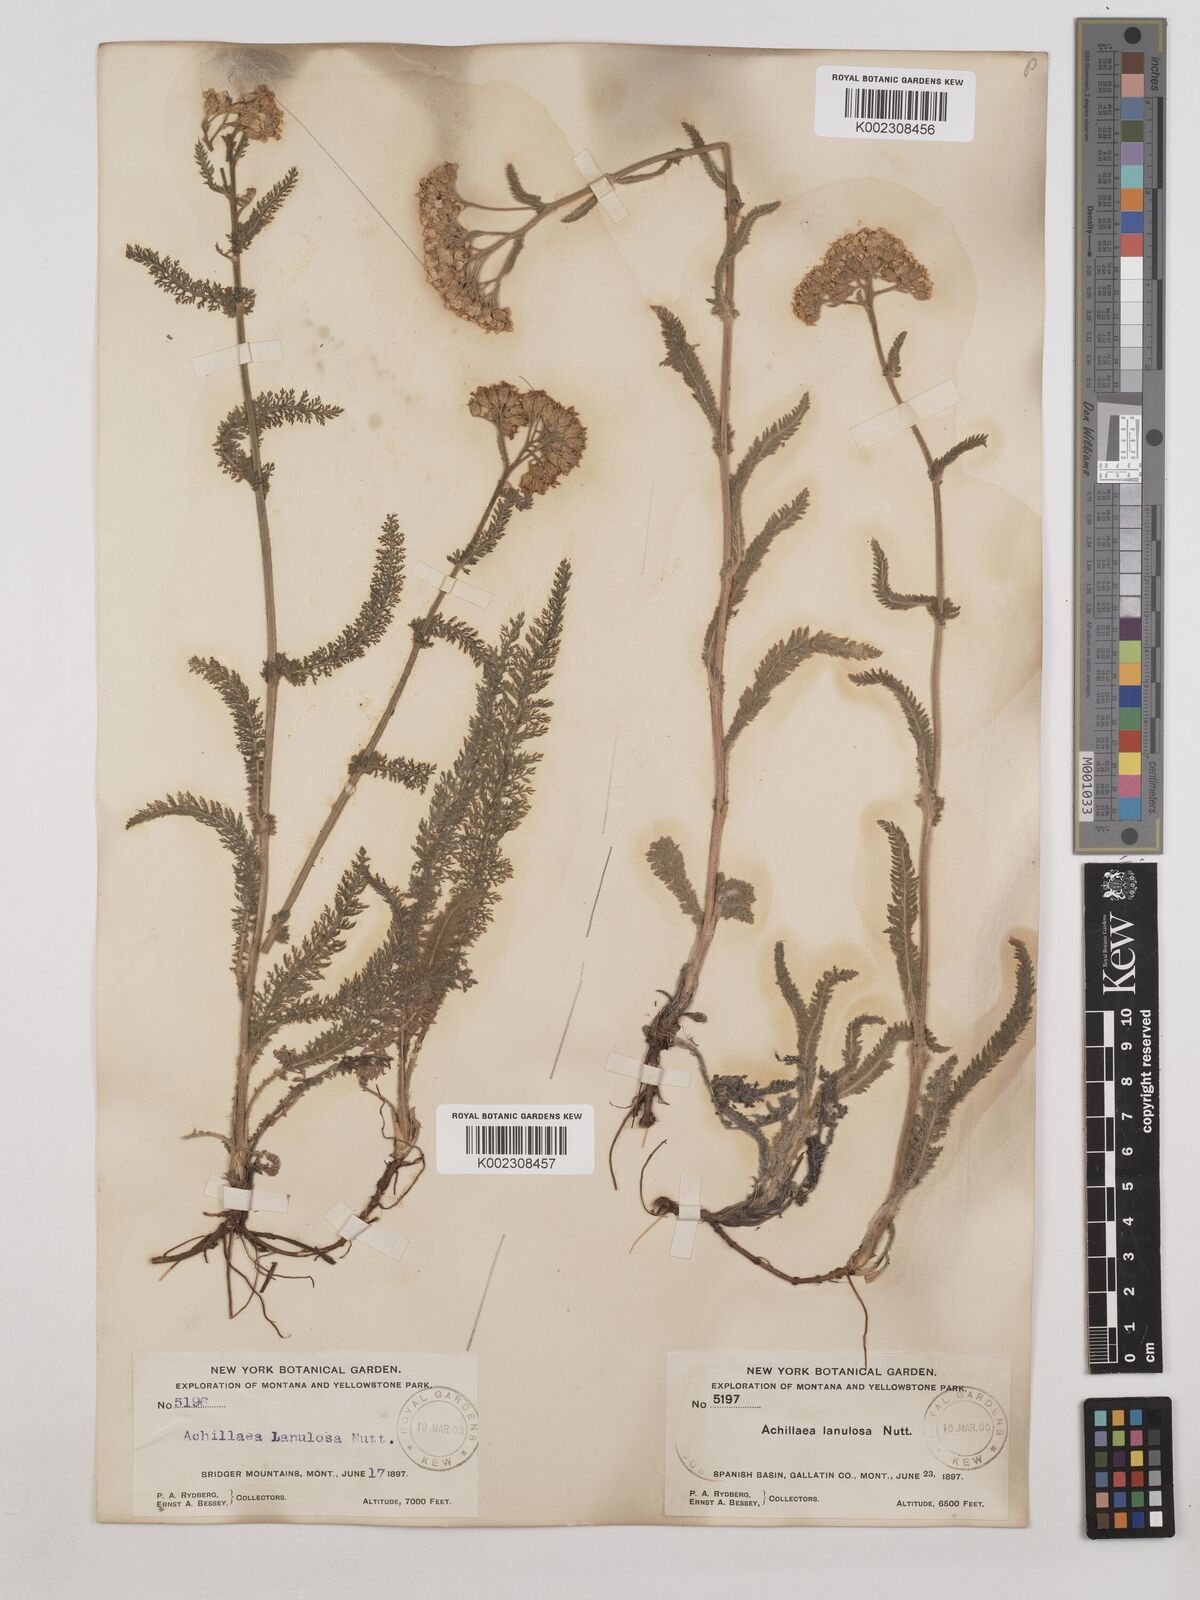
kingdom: Plantae
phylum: Tracheophyta
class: Magnoliopsida
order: Asterales
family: Asteraceae
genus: Achillea
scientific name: Achillea millefolium
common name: Yarrow
